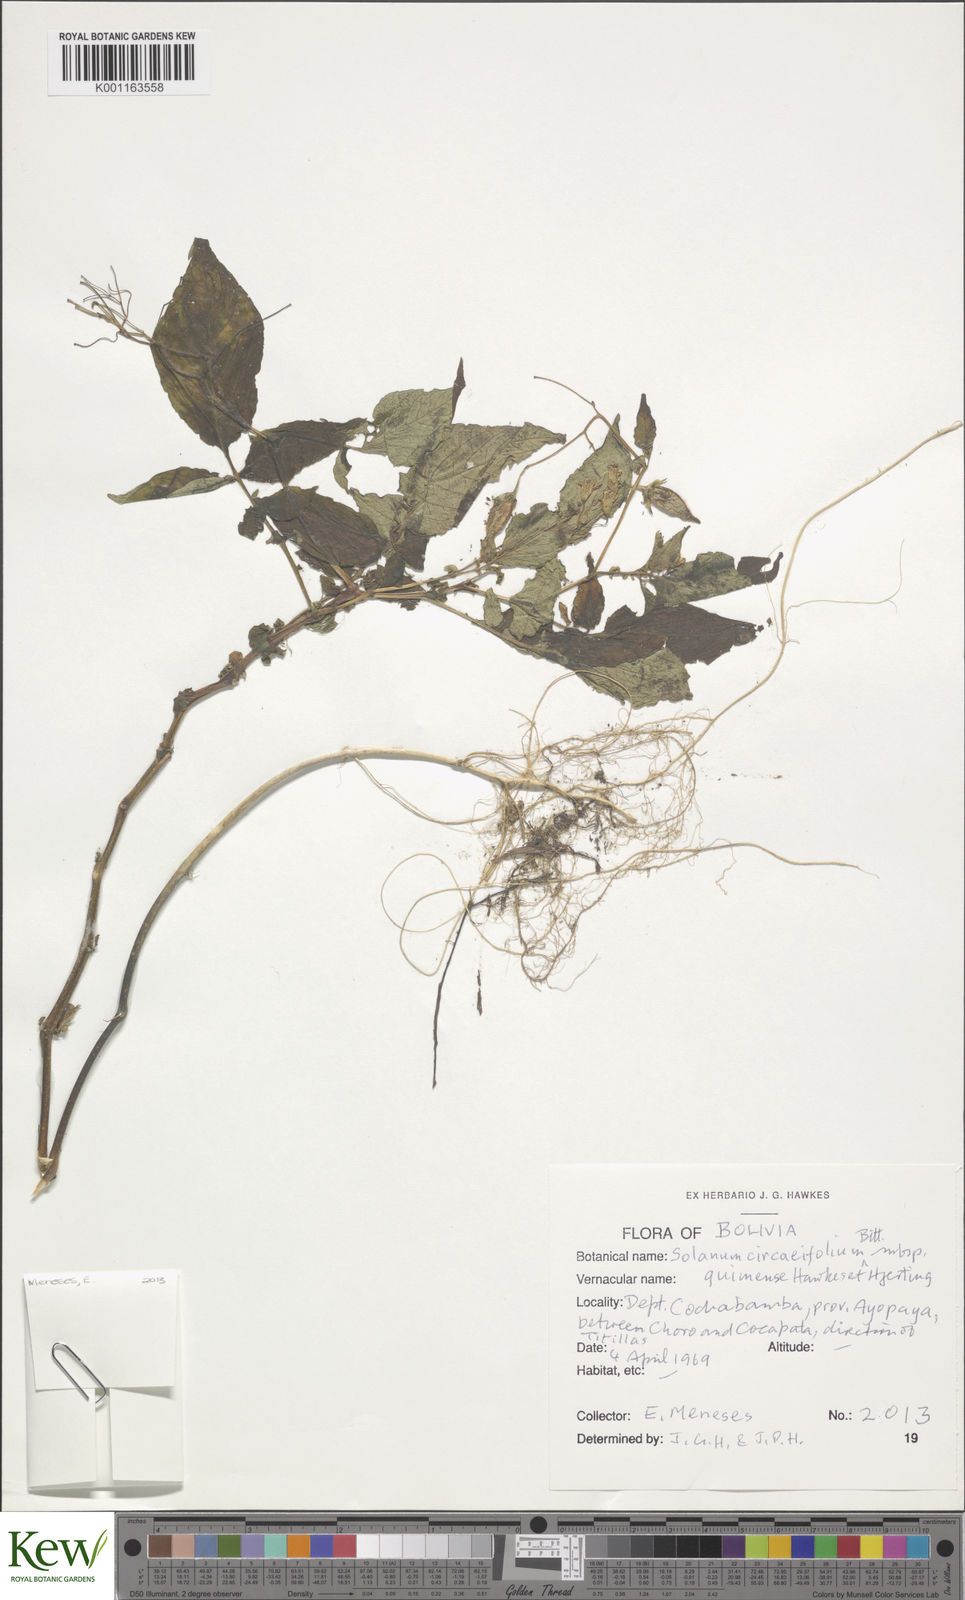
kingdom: Plantae
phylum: Tracheophyta
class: Magnoliopsida
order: Solanales
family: Solanaceae
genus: Solanum
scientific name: Solanum stipuloideum
